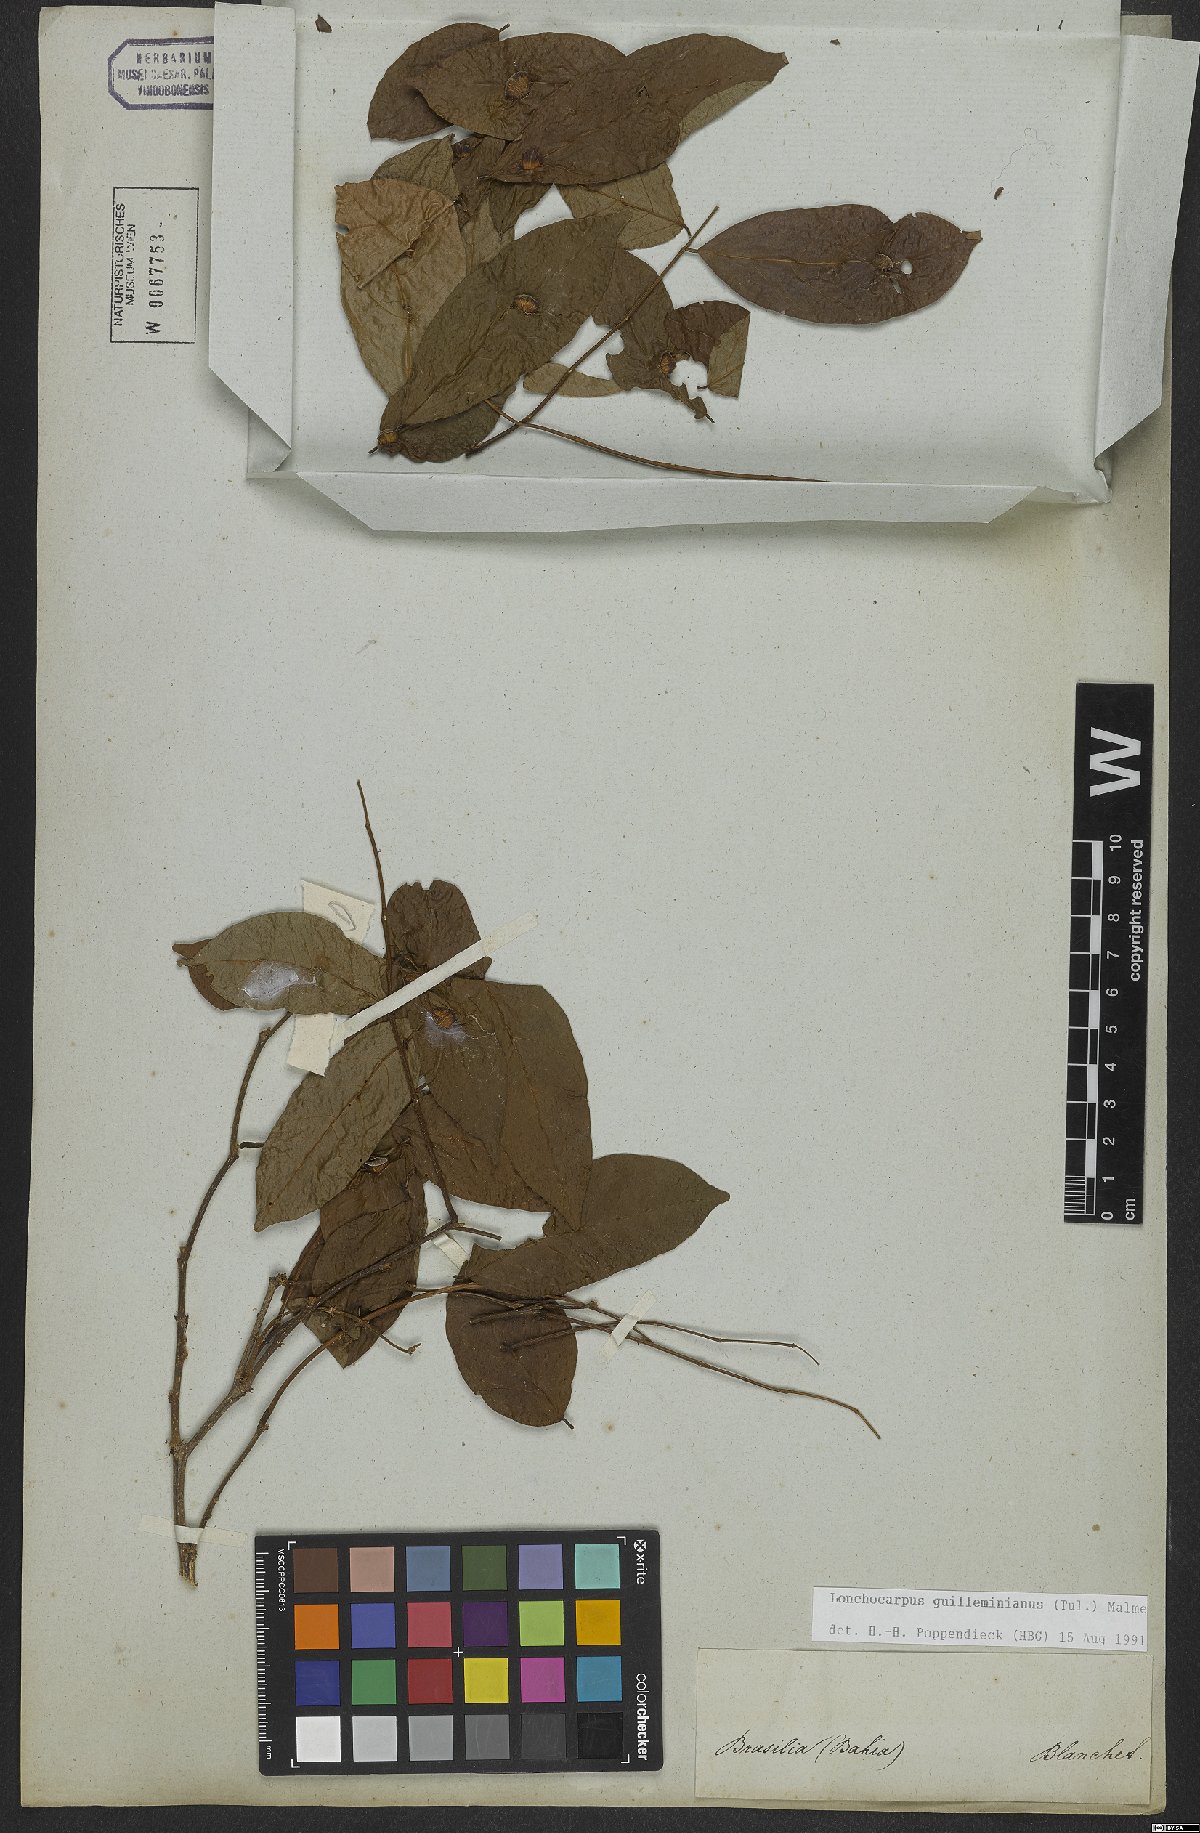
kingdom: Plantae
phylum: Tracheophyta
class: Magnoliopsida
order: Fabales
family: Fabaceae
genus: Lonchocarpus
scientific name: Lonchocarpus cultratus
